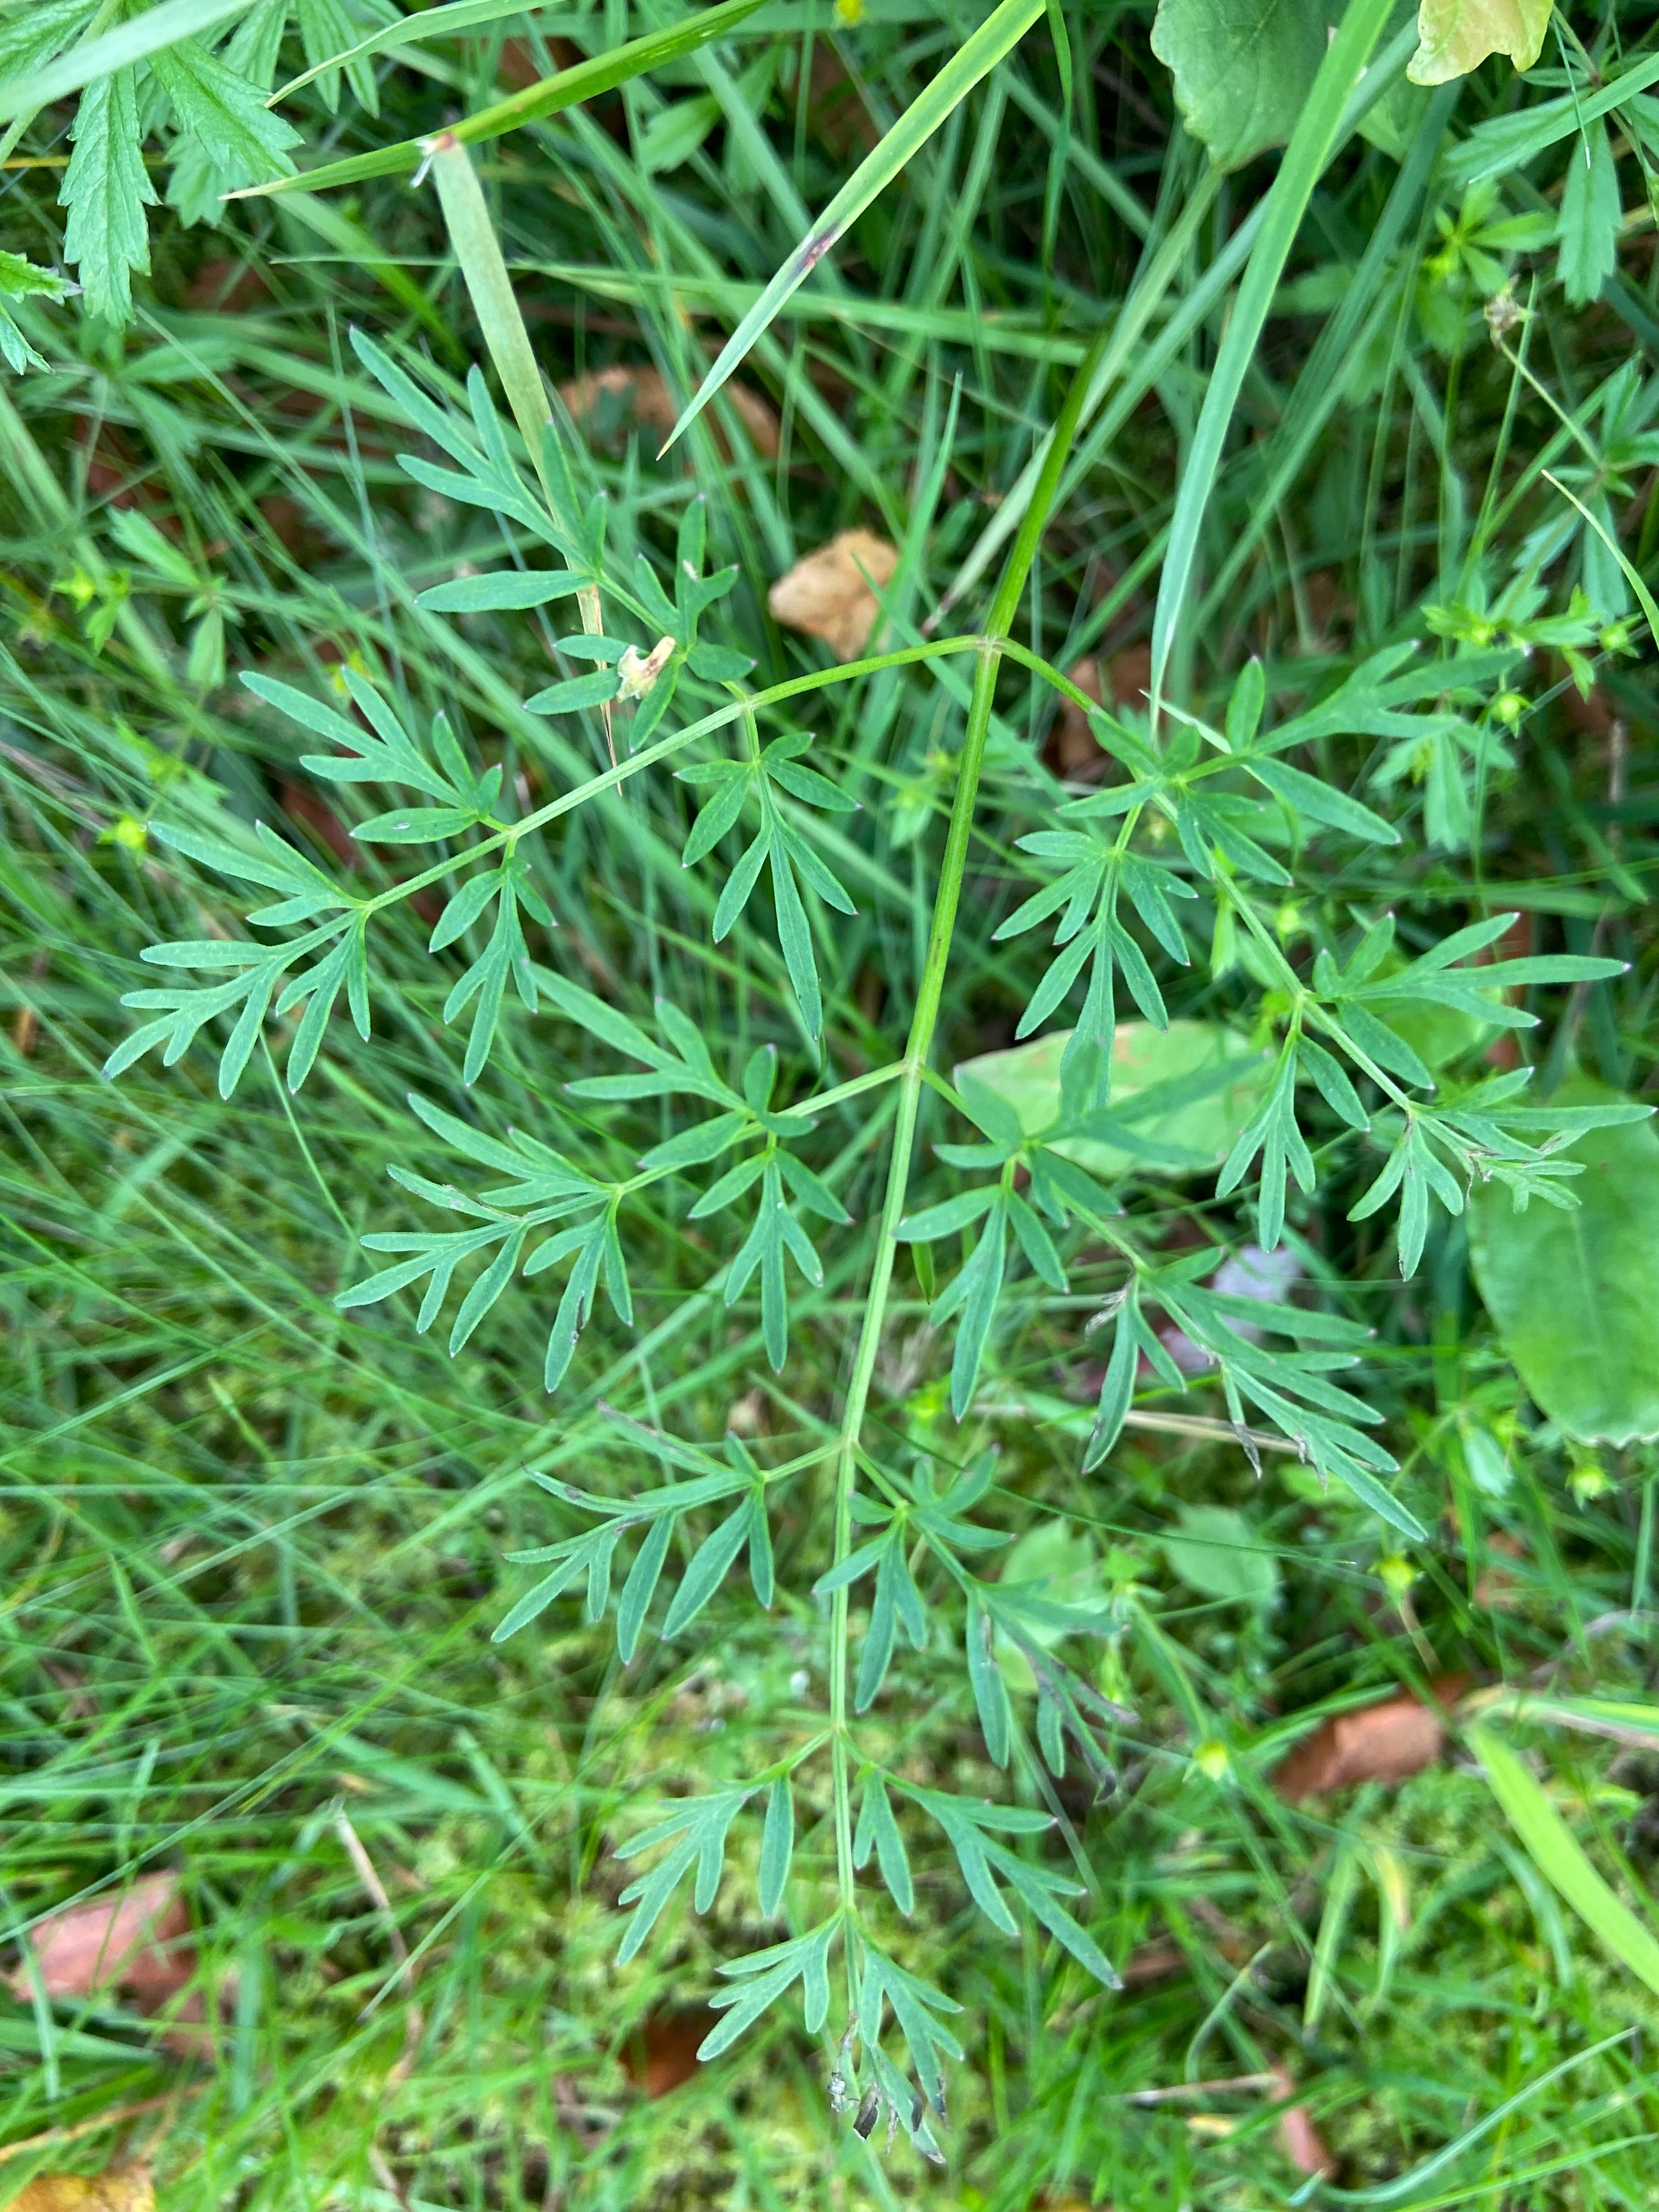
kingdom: Plantae
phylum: Tracheophyta
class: Magnoliopsida
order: Apiales
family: Apiaceae
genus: Thysselinum
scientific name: Thysselinum palustre
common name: Kær-svovlrod
